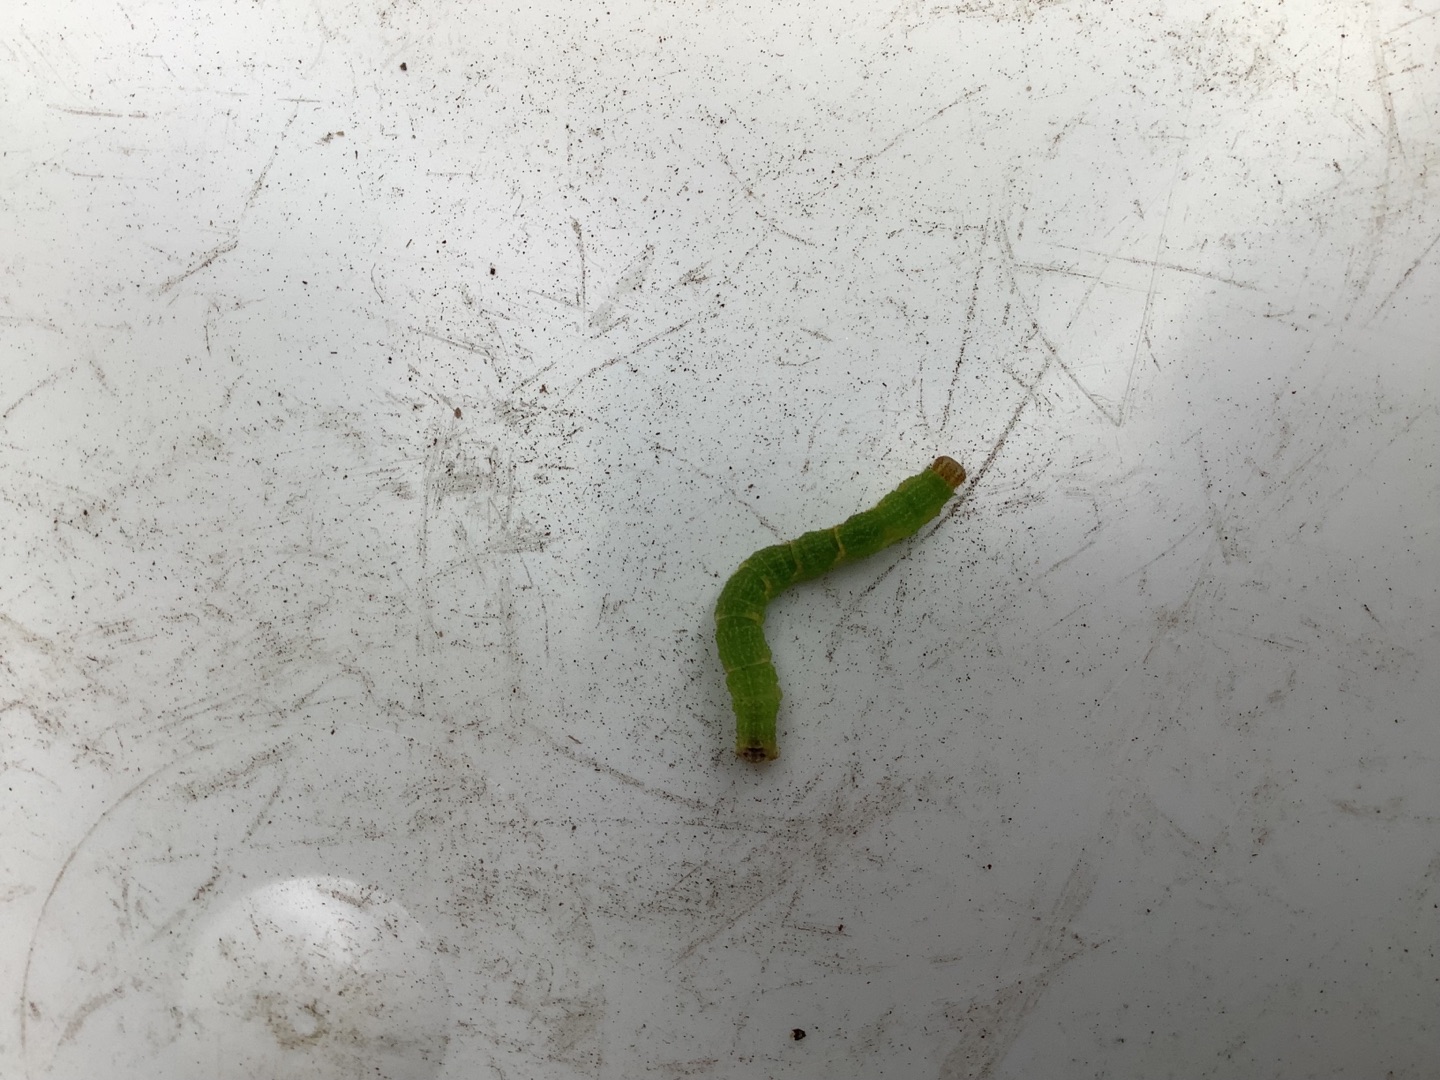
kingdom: Animalia
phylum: Arthropoda
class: Insecta
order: Lepidoptera
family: Geometridae
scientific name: Geometridae
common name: Målere
